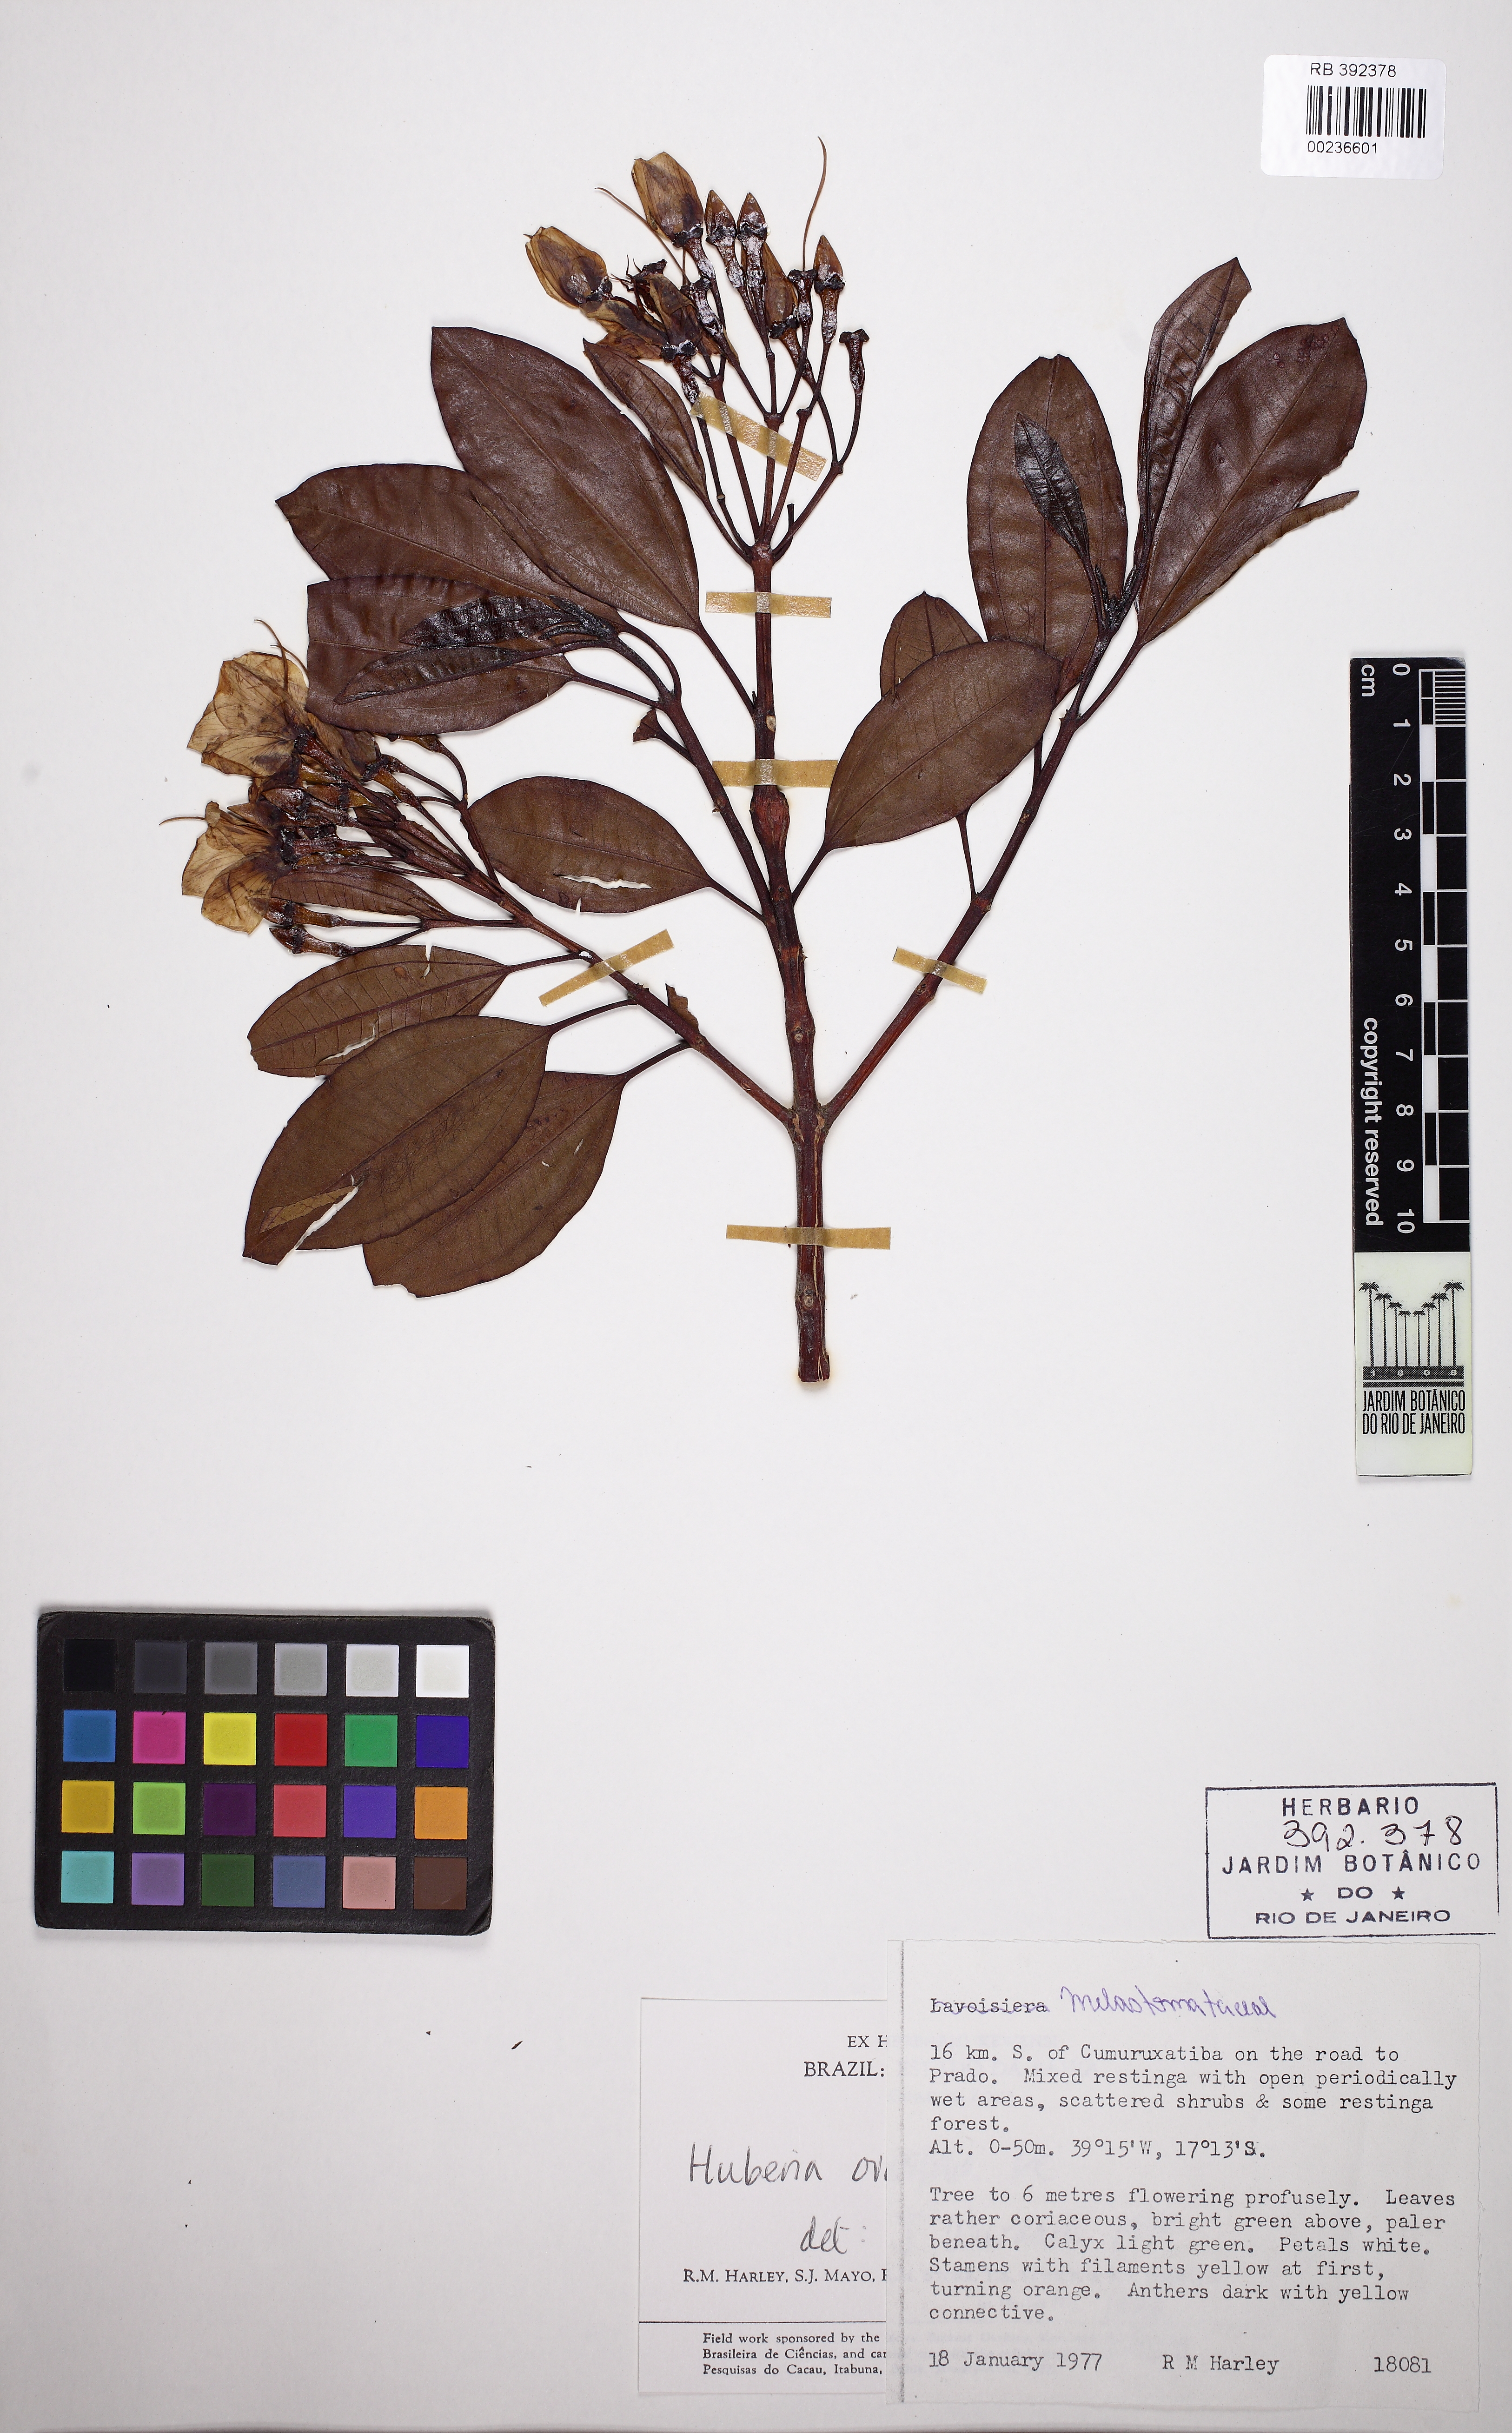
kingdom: Plantae
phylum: Tracheophyta
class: Magnoliopsida
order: Myrtales
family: Melastomataceae
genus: Huberia
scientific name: Huberia ovalifolia
